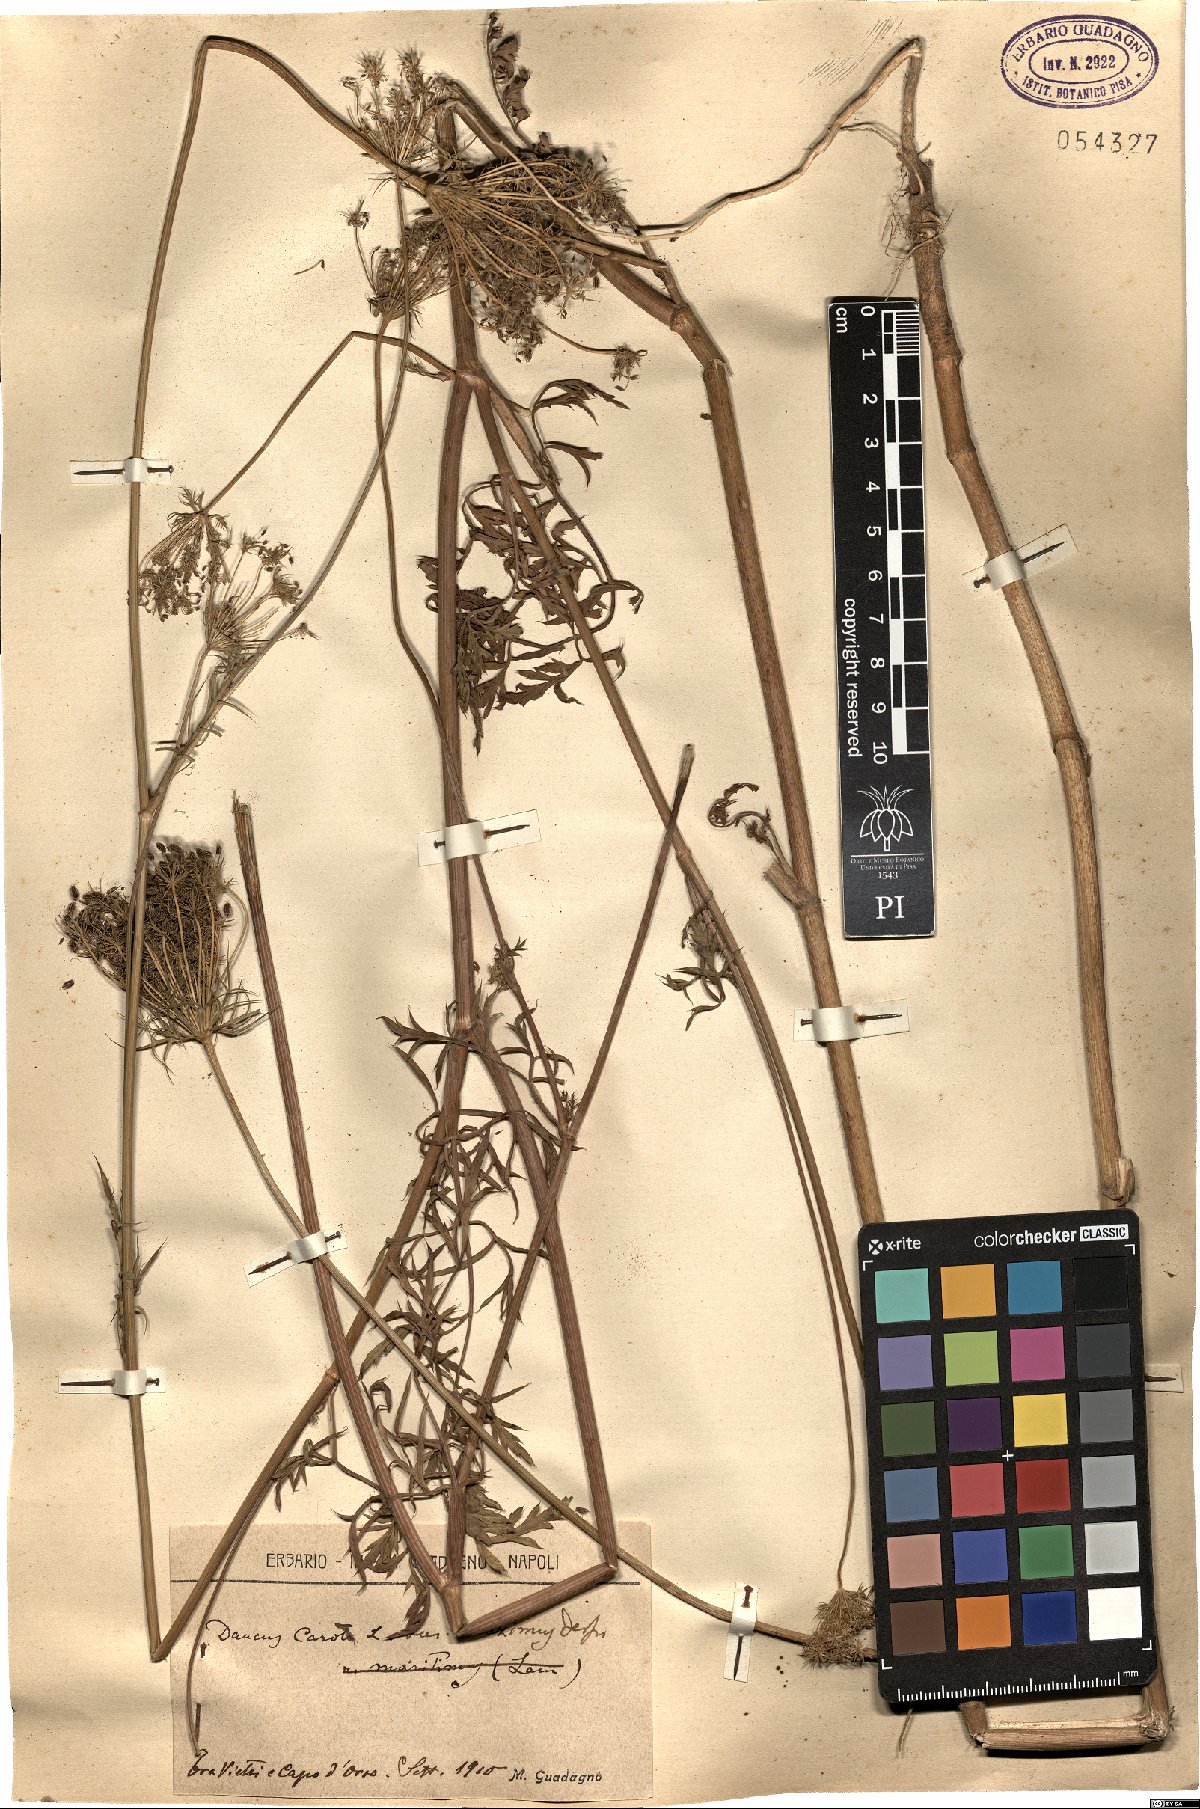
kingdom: Plantae
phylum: Tracheophyta
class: Magnoliopsida
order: Apiales
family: Apiaceae
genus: Daucus
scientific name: Daucus carota
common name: Wild carrot
